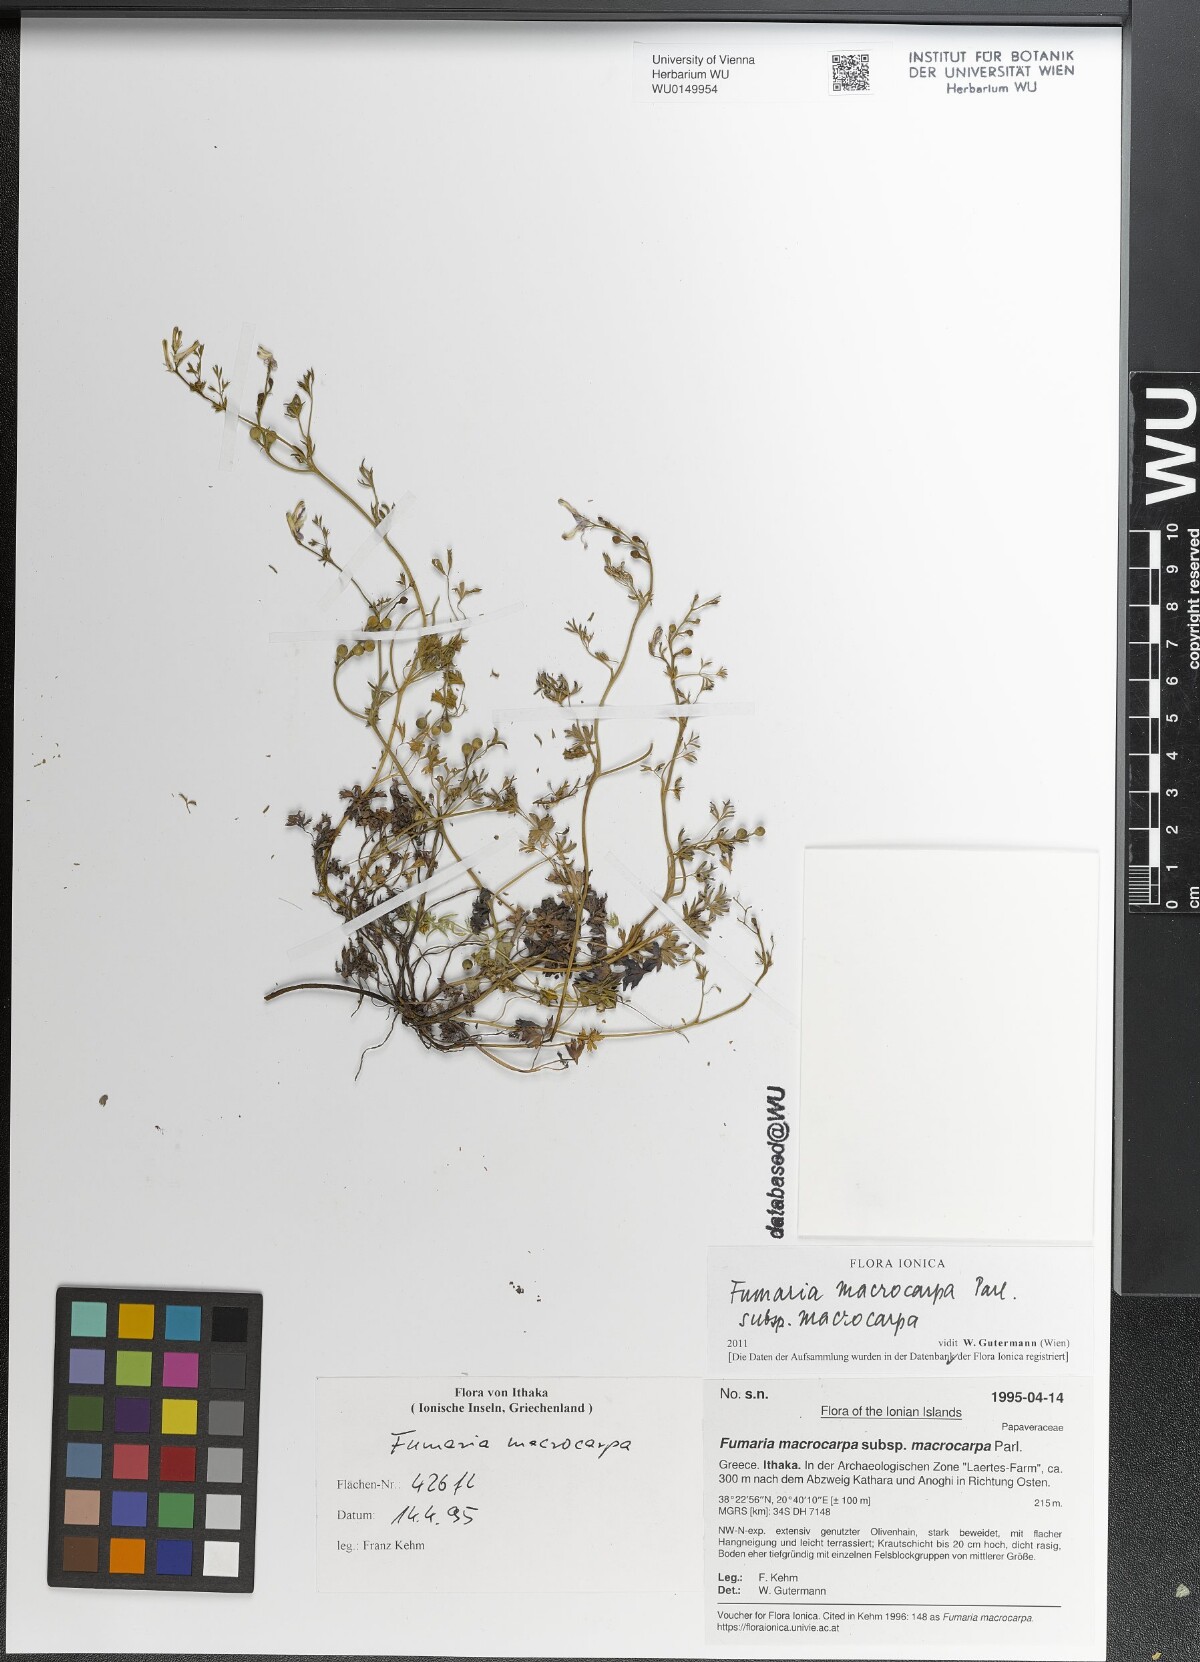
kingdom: Plantae
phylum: Tracheophyta
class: Magnoliopsida
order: Ranunculales
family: Papaveraceae
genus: Fumaria
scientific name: Fumaria macrocarpa
